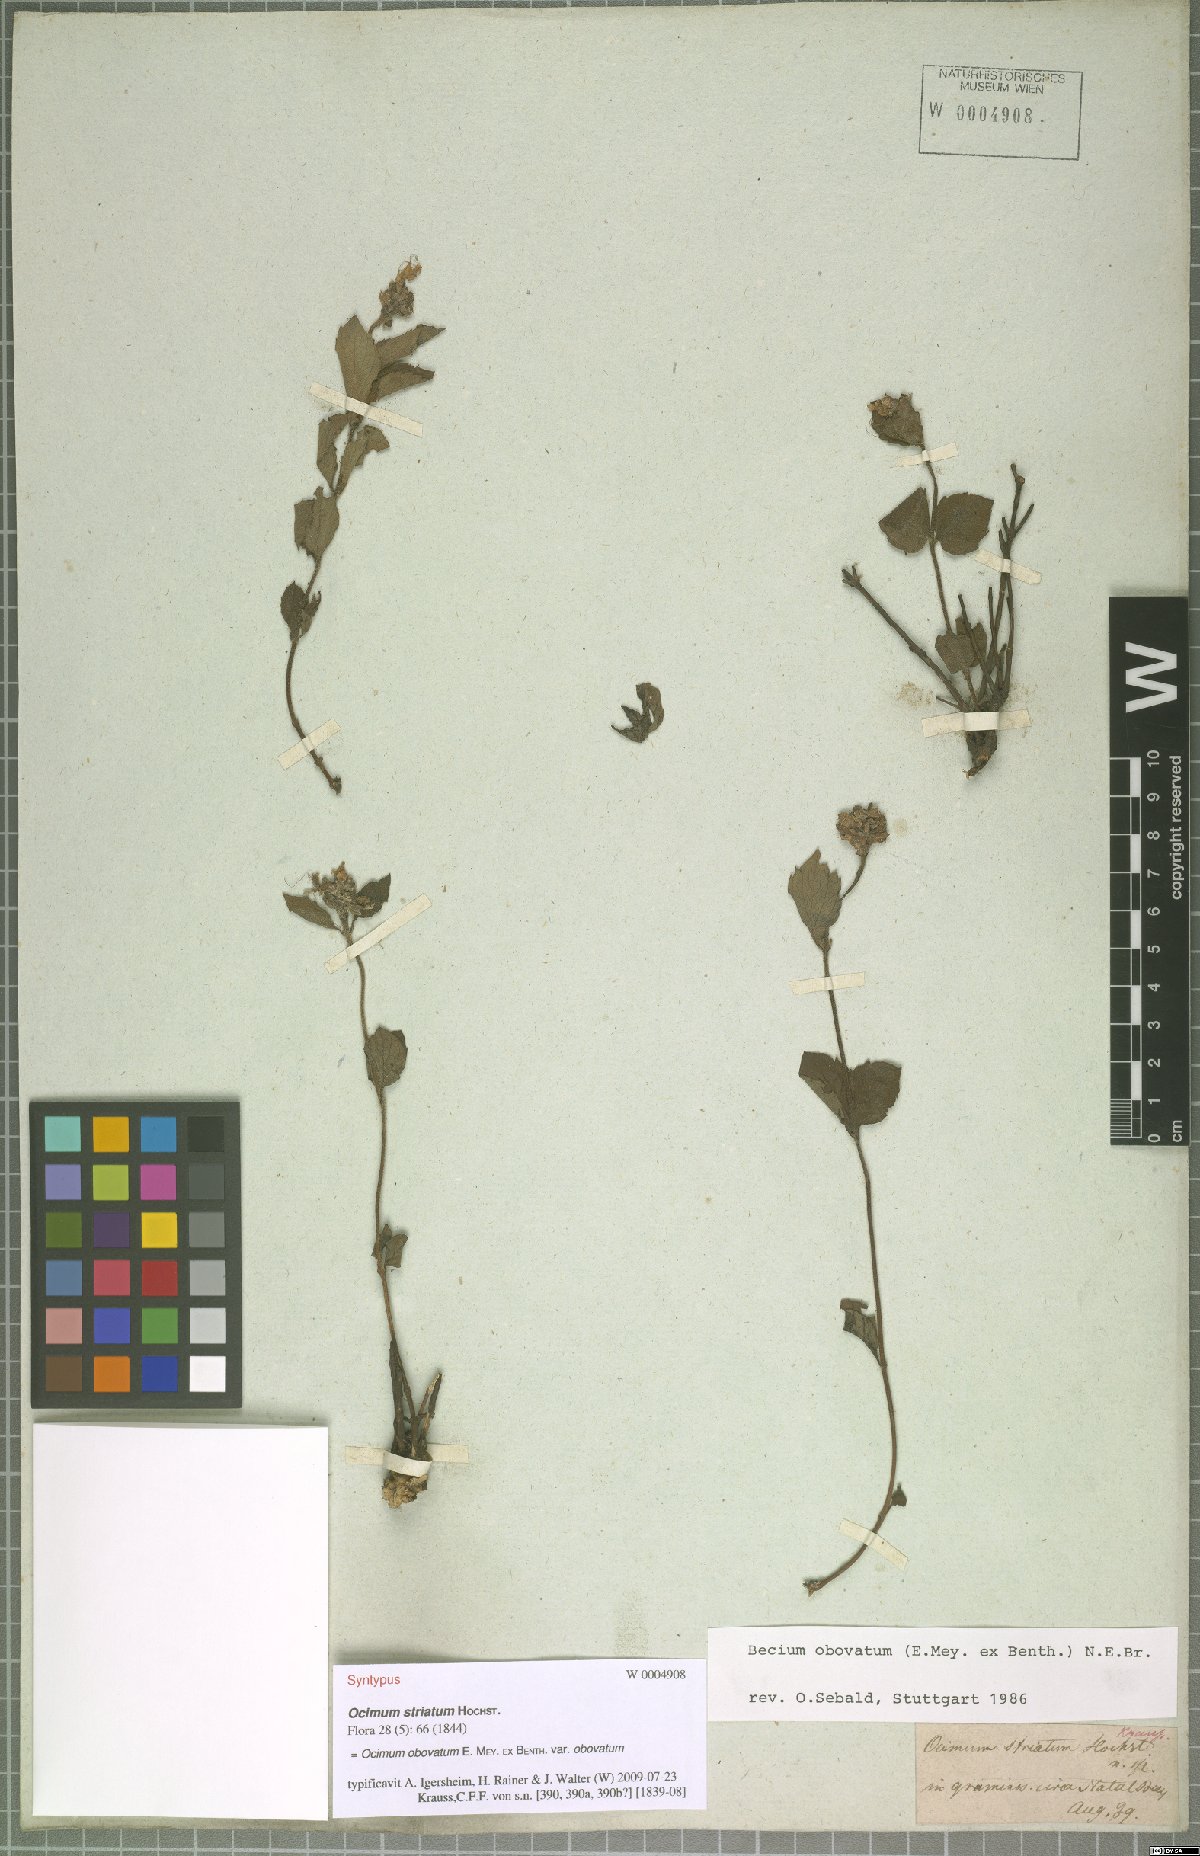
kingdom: Plantae
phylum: Tracheophyta
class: Magnoliopsida
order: Lamiales
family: Lamiaceae
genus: Ocimum
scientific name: Ocimum obovatum
